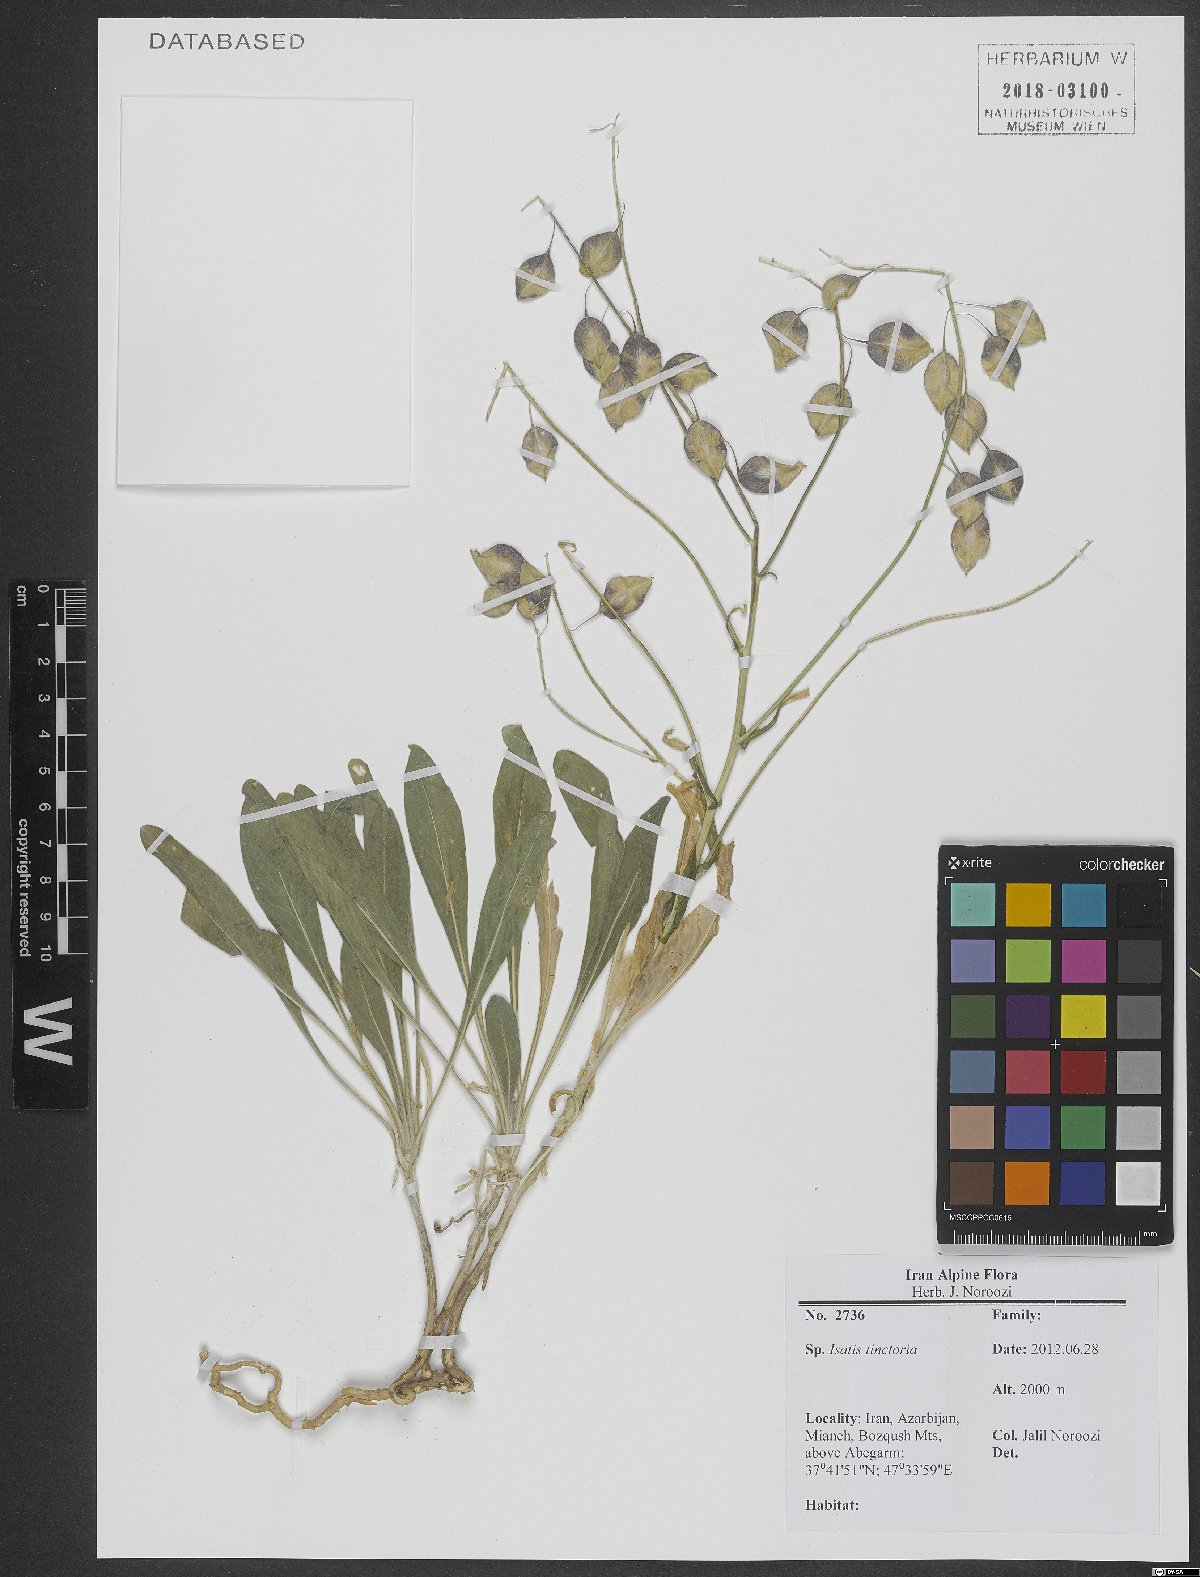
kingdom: Plantae
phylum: Tracheophyta
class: Magnoliopsida
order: Brassicales
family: Brassicaceae
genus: Isatis
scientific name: Isatis tinctoria
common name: Woad
